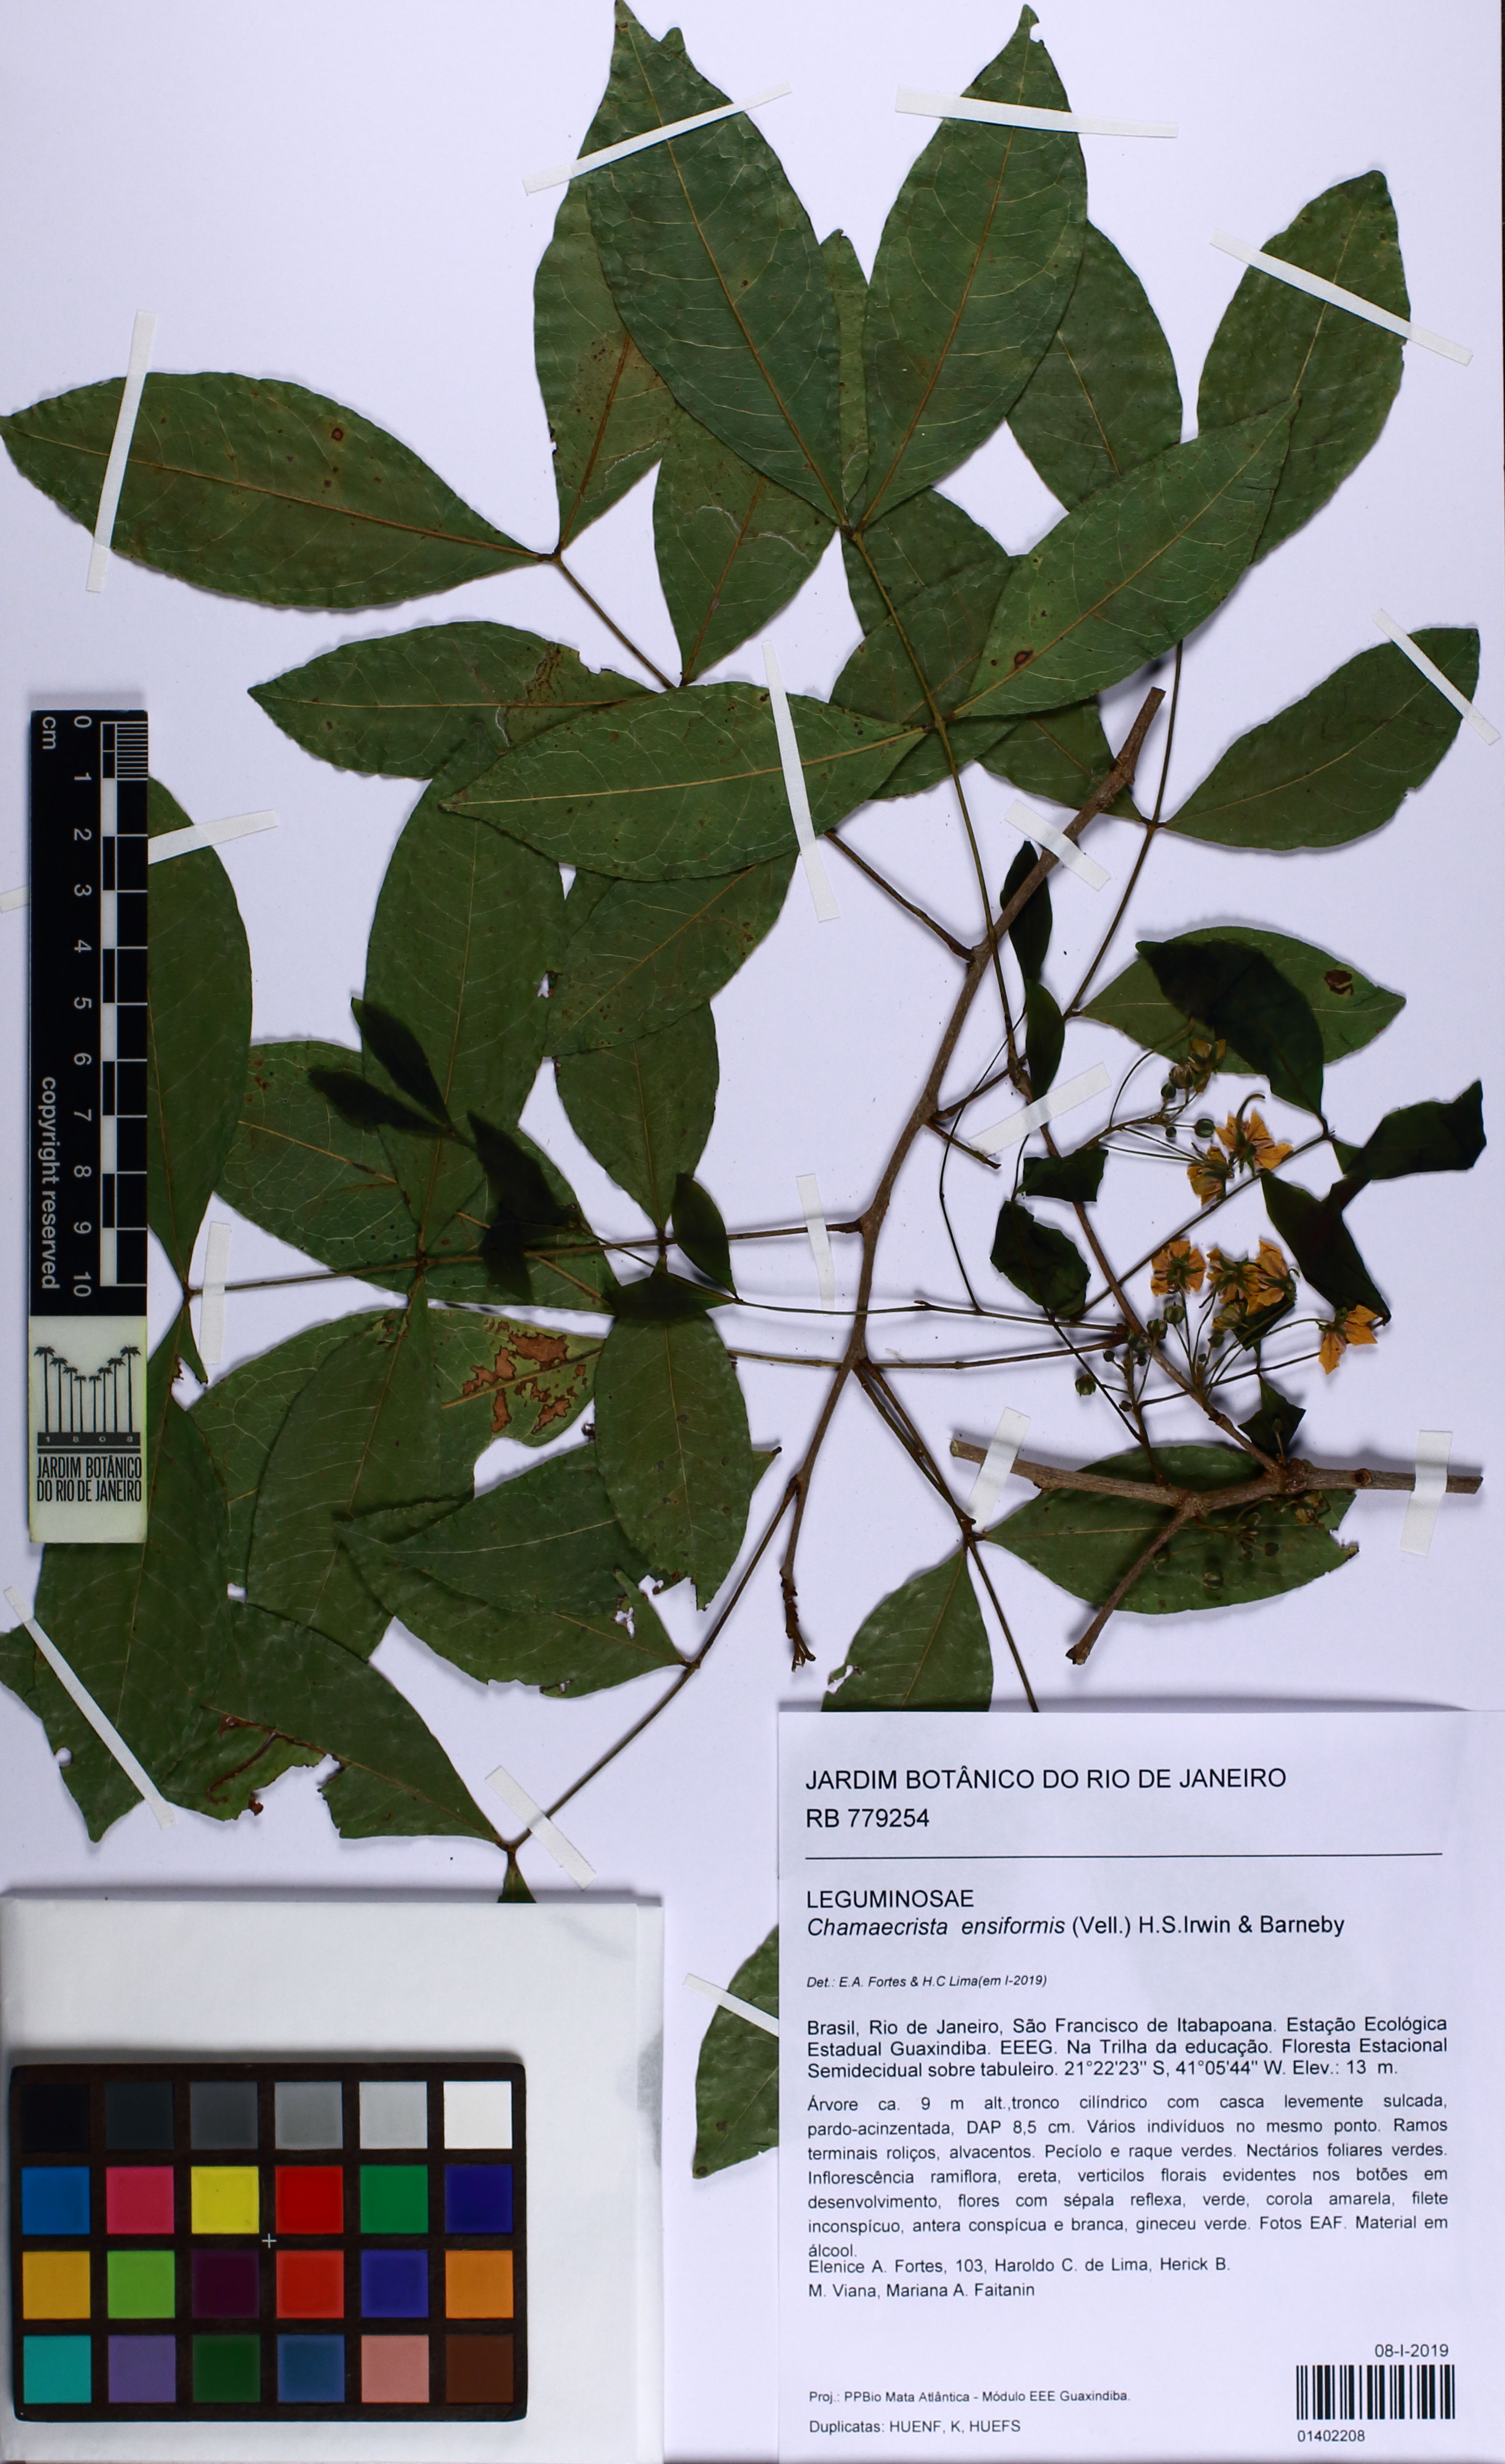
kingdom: Plantae
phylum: Tracheophyta
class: Magnoliopsida
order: Fabales
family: Fabaceae
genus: Chamaecrista
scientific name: Chamaecrista ensiformis
